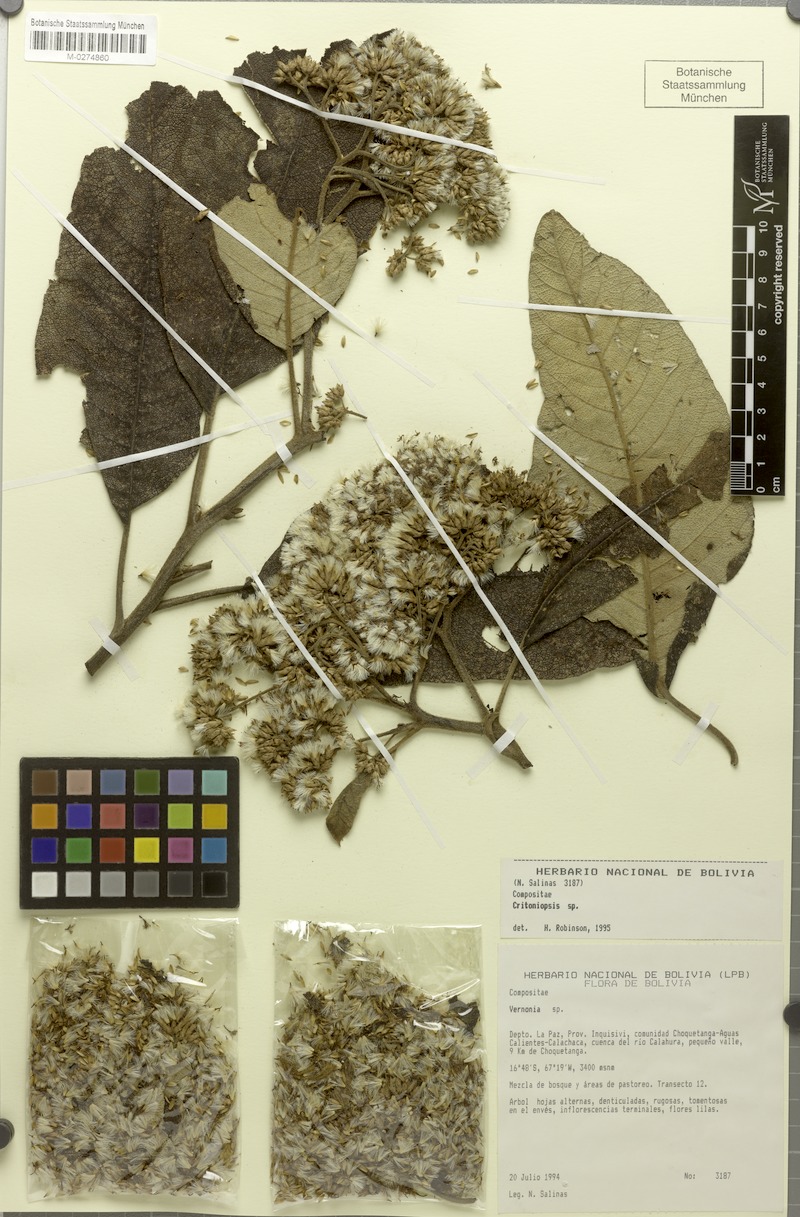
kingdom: Plantae
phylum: Tracheophyta
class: Magnoliopsida
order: Asterales
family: Asteraceae
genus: Critoniopsis
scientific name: Critoniopsis choquetangensis
